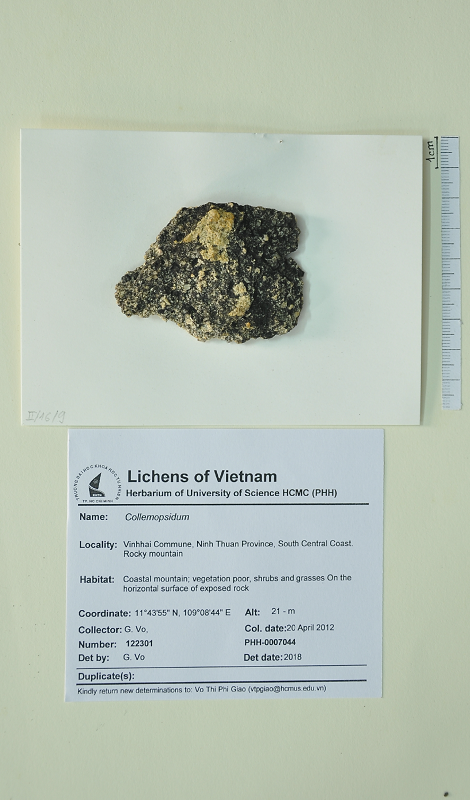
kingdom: Fungi
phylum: Ascomycota
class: Dothideomycetes
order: Collemopsidiales
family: Xanthopyreniaceae
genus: Collemopsidium
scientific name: Collemopsidium
